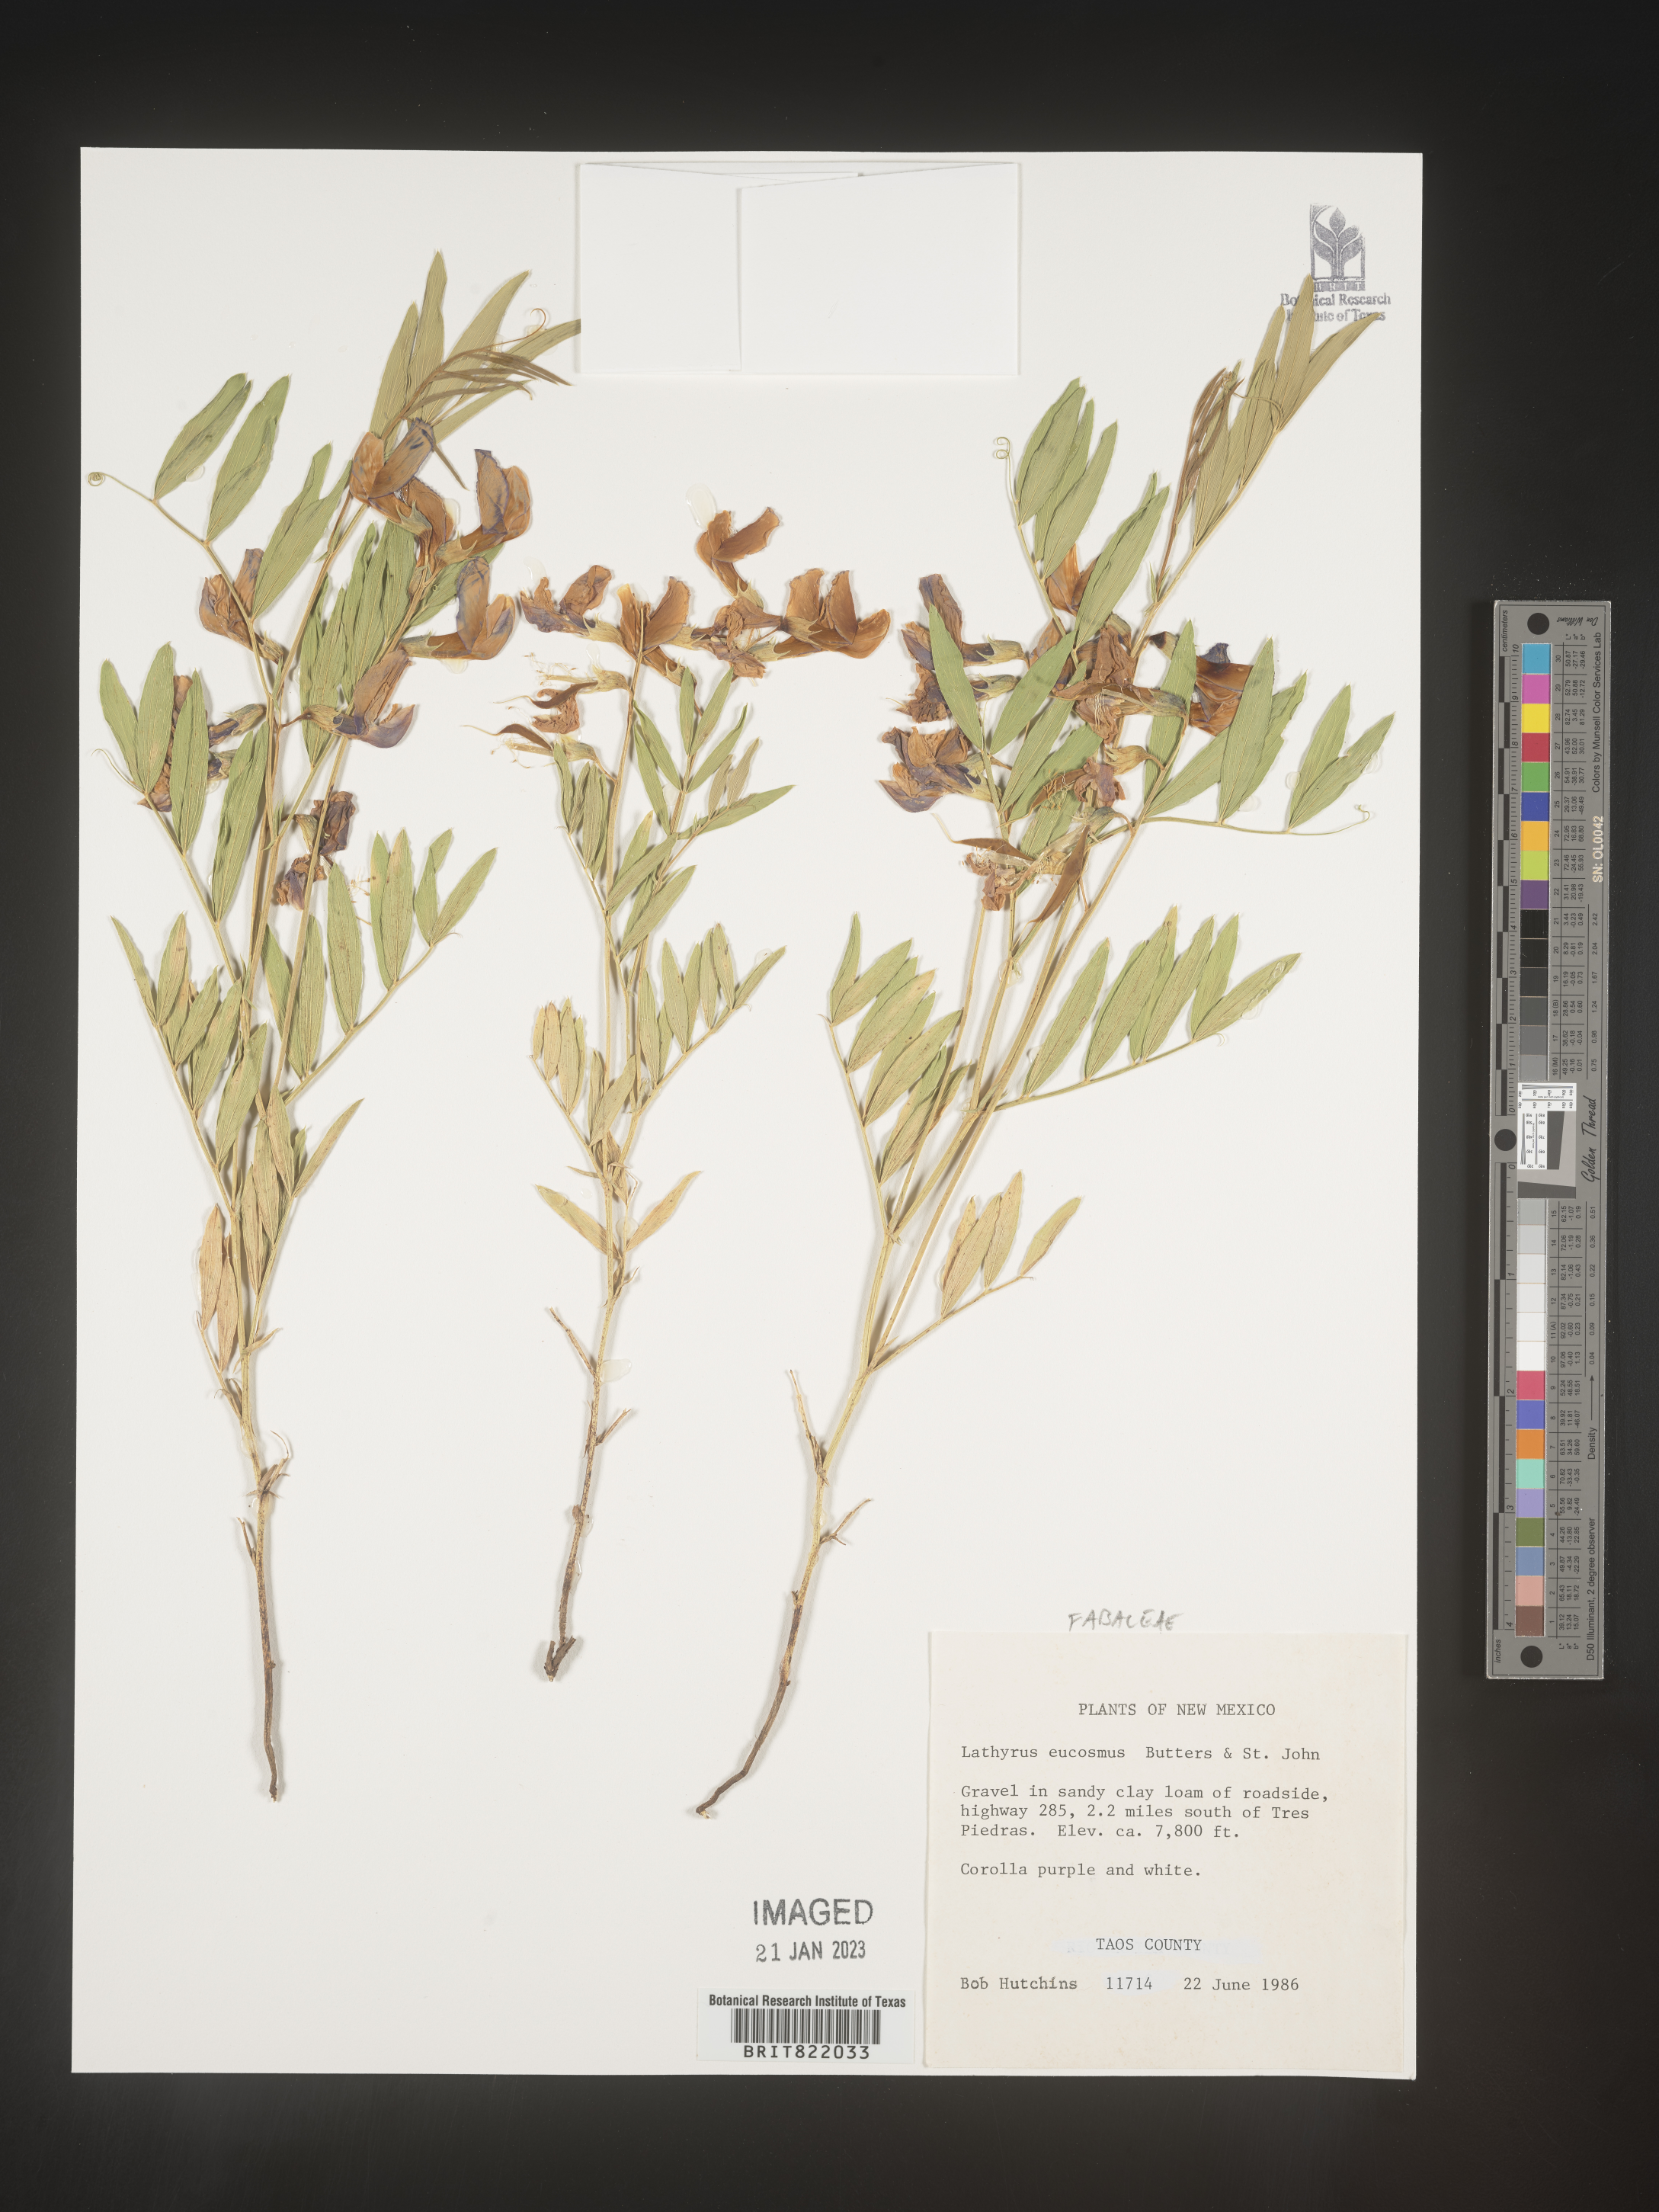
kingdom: Plantae
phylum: Tracheophyta
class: Magnoliopsida
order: Fabales
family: Fabaceae
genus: Lathyrus
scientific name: Lathyrus
